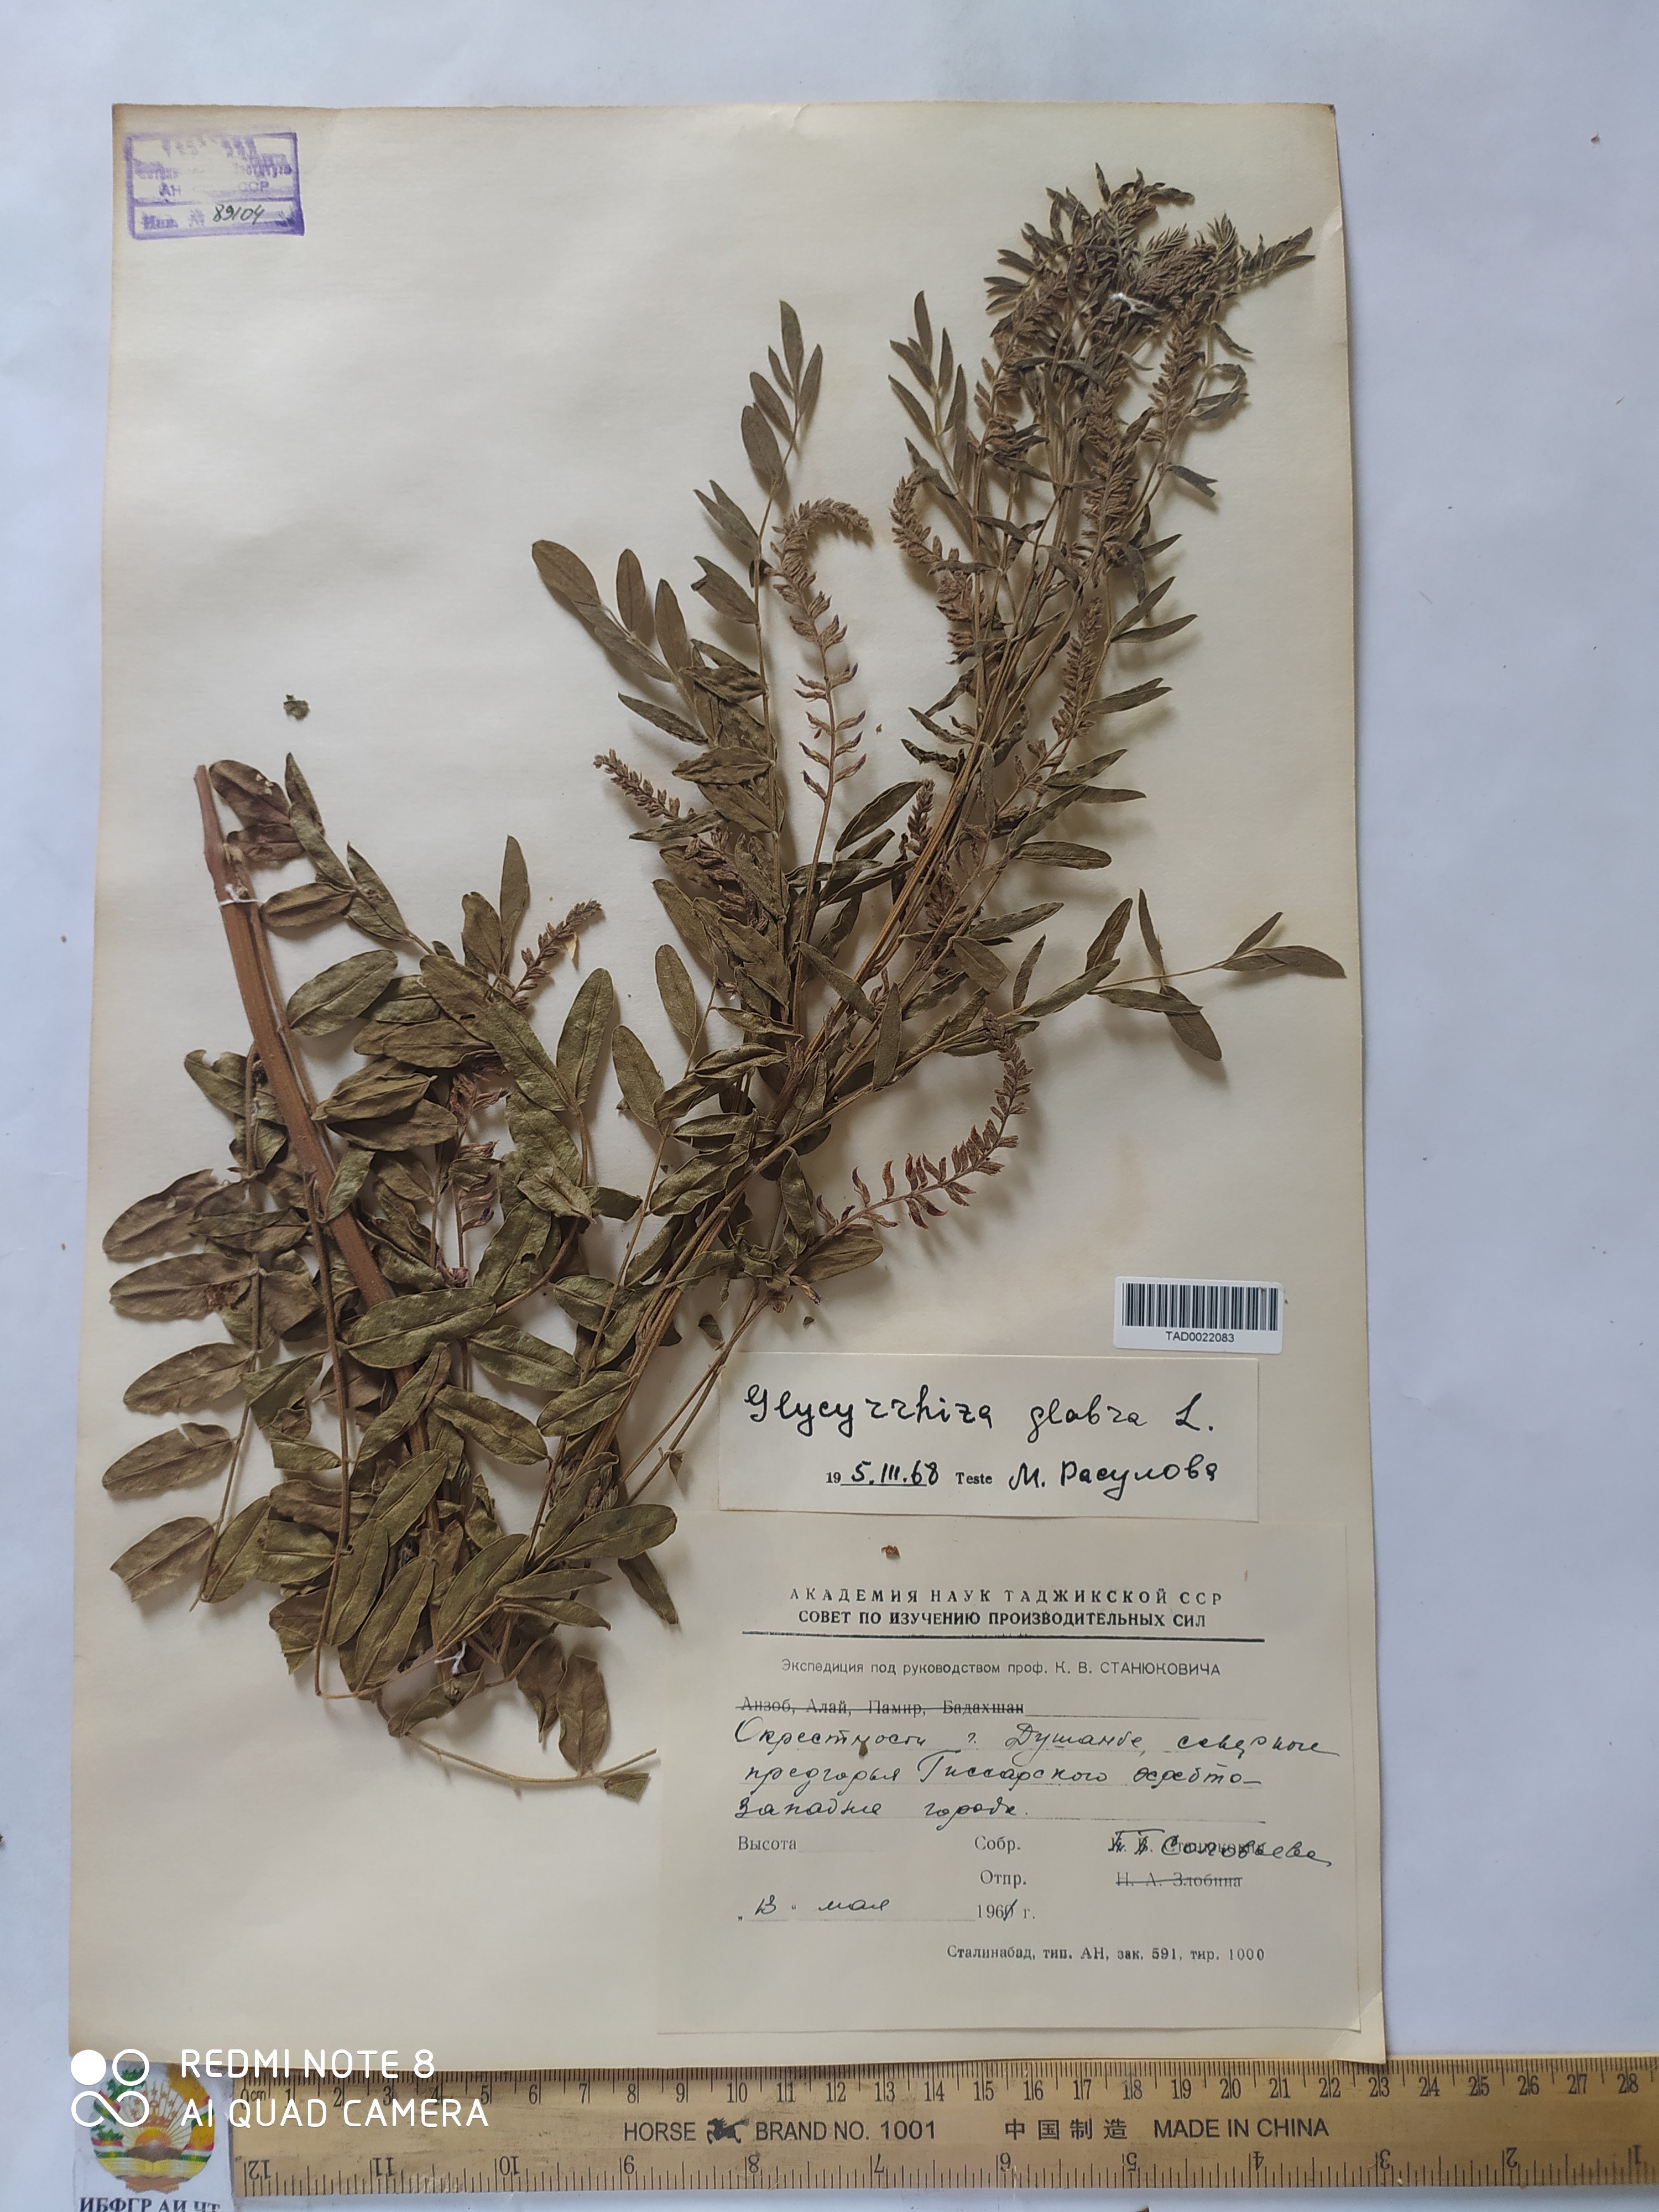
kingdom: Plantae
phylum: Tracheophyta
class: Magnoliopsida
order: Fabales
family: Fabaceae
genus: Glycyrrhiza
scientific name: Glycyrrhiza glabra
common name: Liquorice
